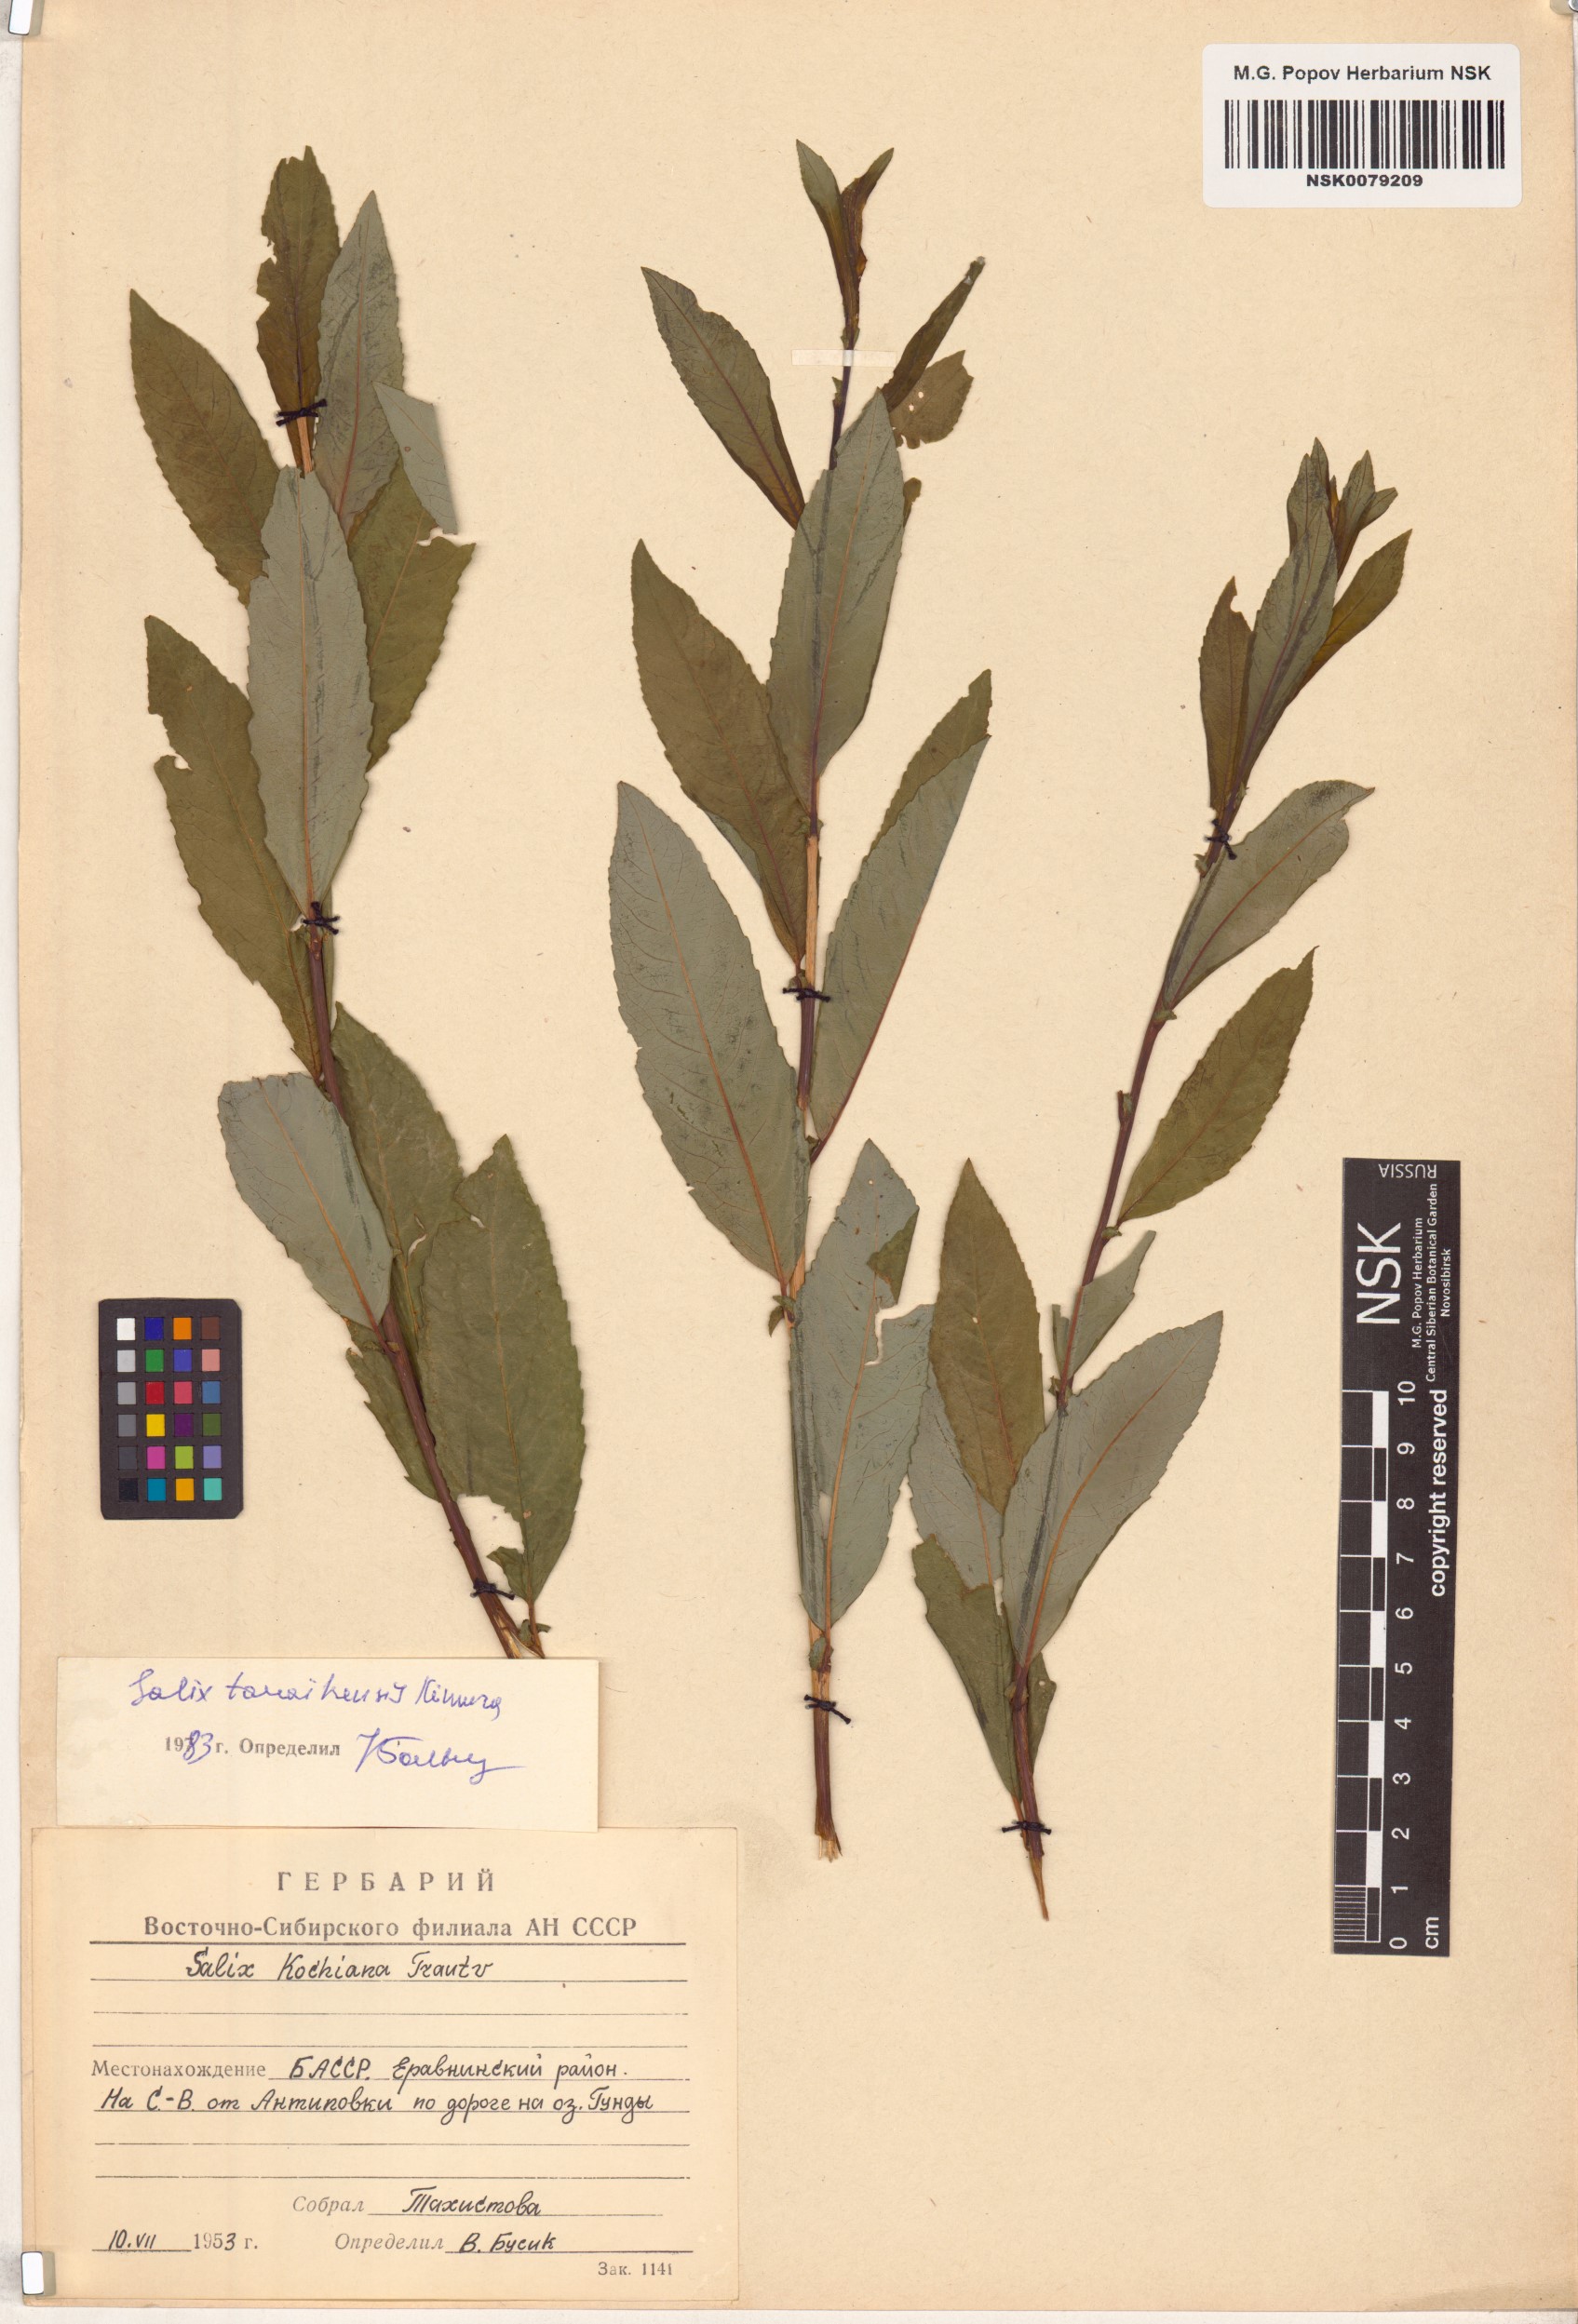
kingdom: Plantae
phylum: Tracheophyta
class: Magnoliopsida
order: Malpighiales
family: Salicaceae
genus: Salix
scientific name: Salix taraikensis
